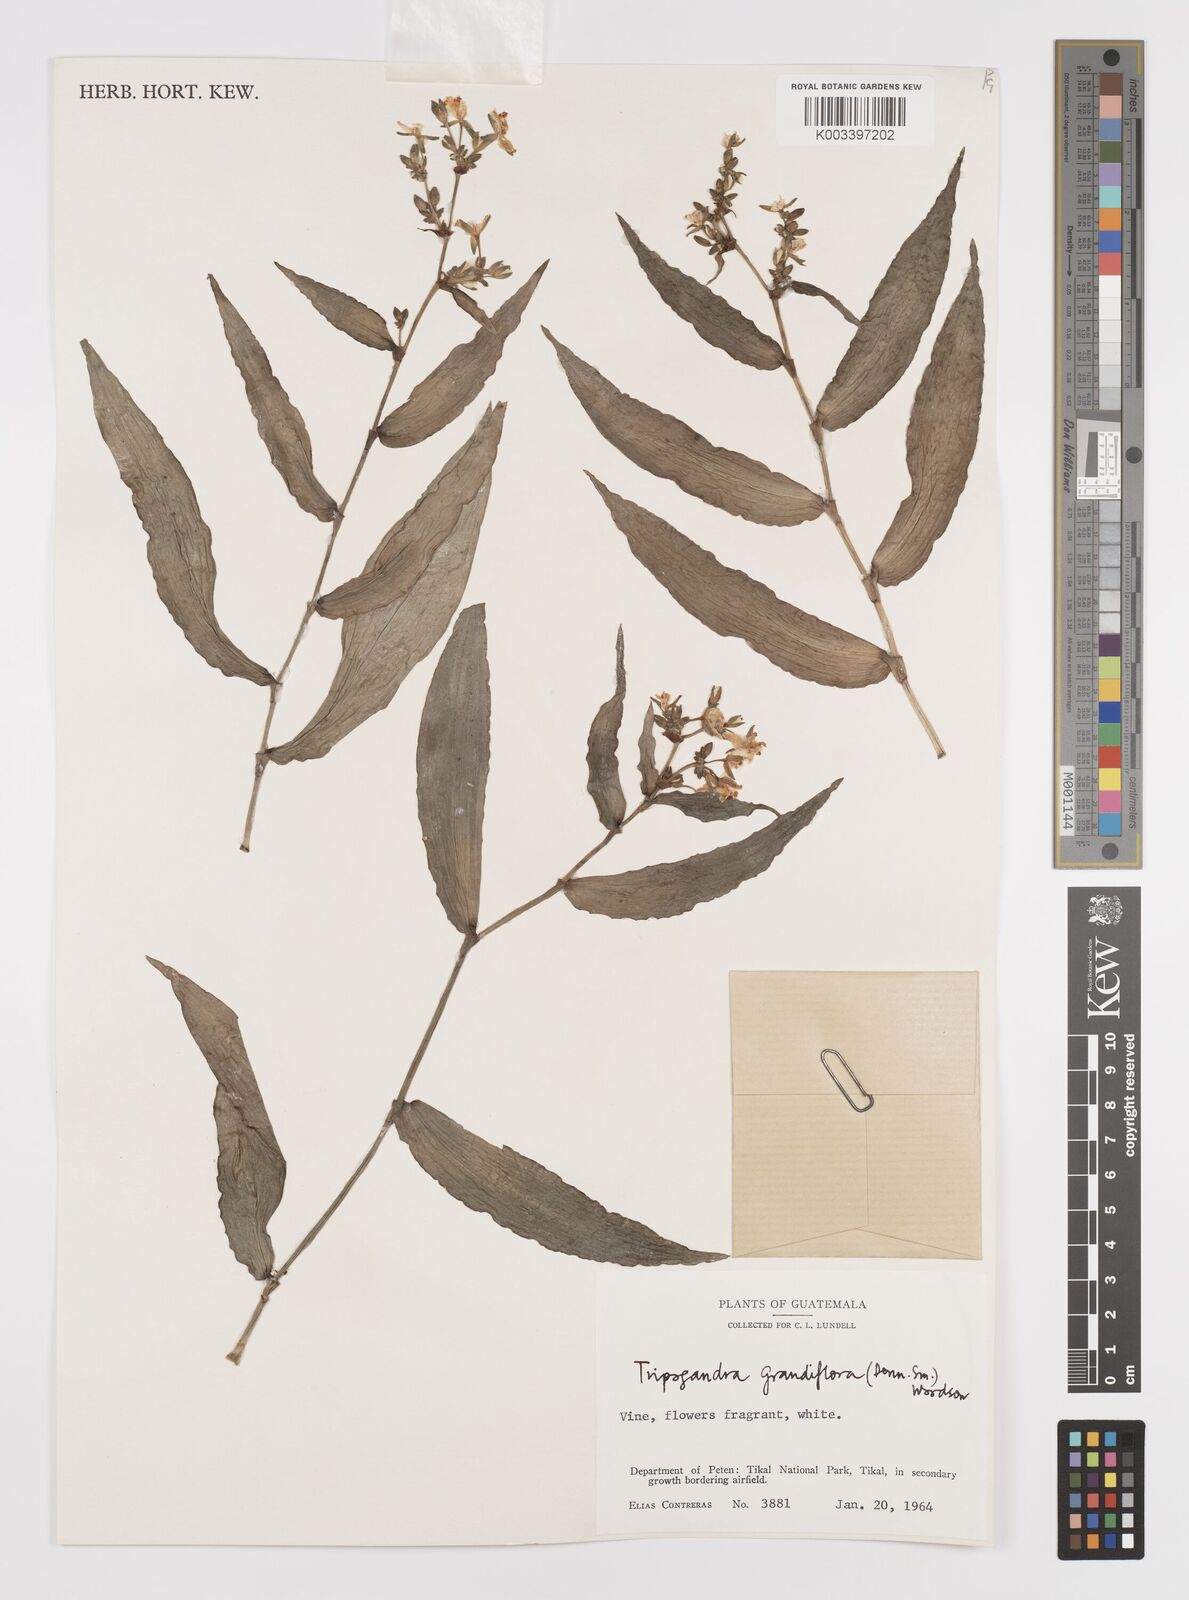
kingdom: Plantae
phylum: Tracheophyta
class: Liliopsida
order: Commelinales
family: Commelinaceae
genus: Callisia
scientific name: Callisia grandiflora
